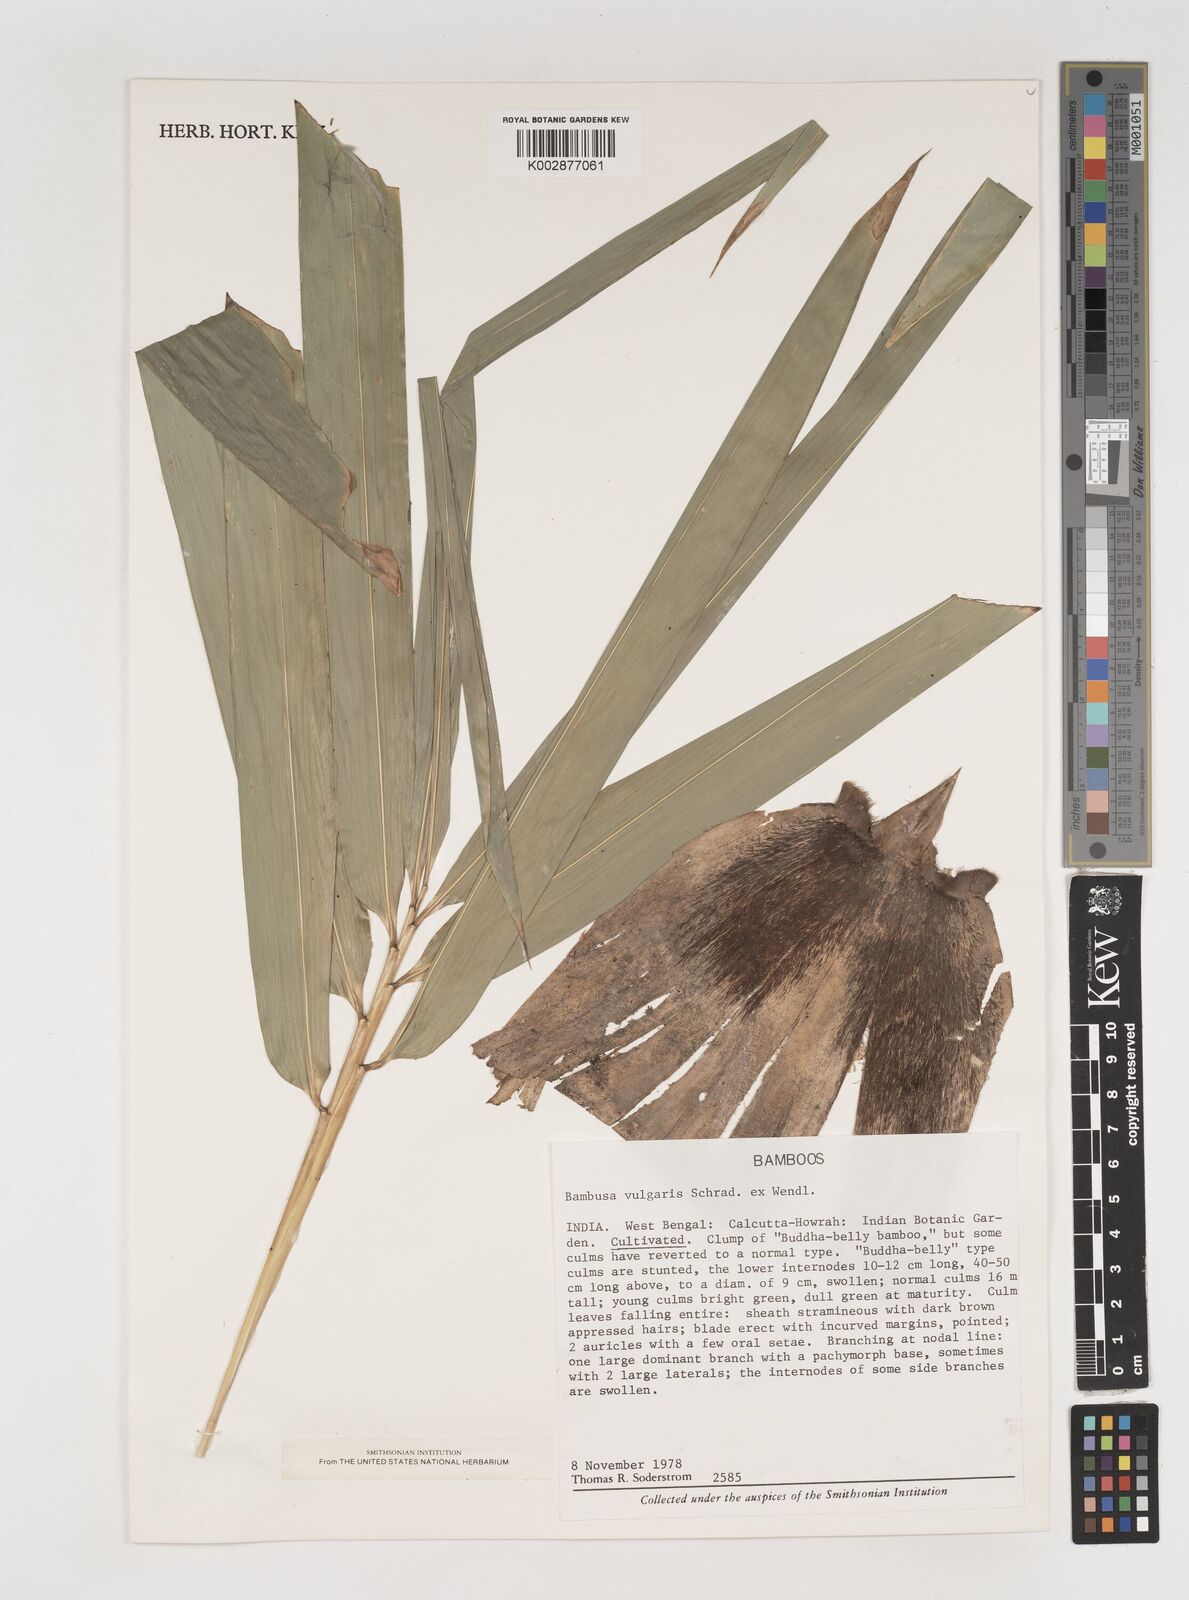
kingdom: Plantae
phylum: Tracheophyta
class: Liliopsida
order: Poales
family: Poaceae
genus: Bambusa
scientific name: Bambusa vulgaris
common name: Common bamboo
